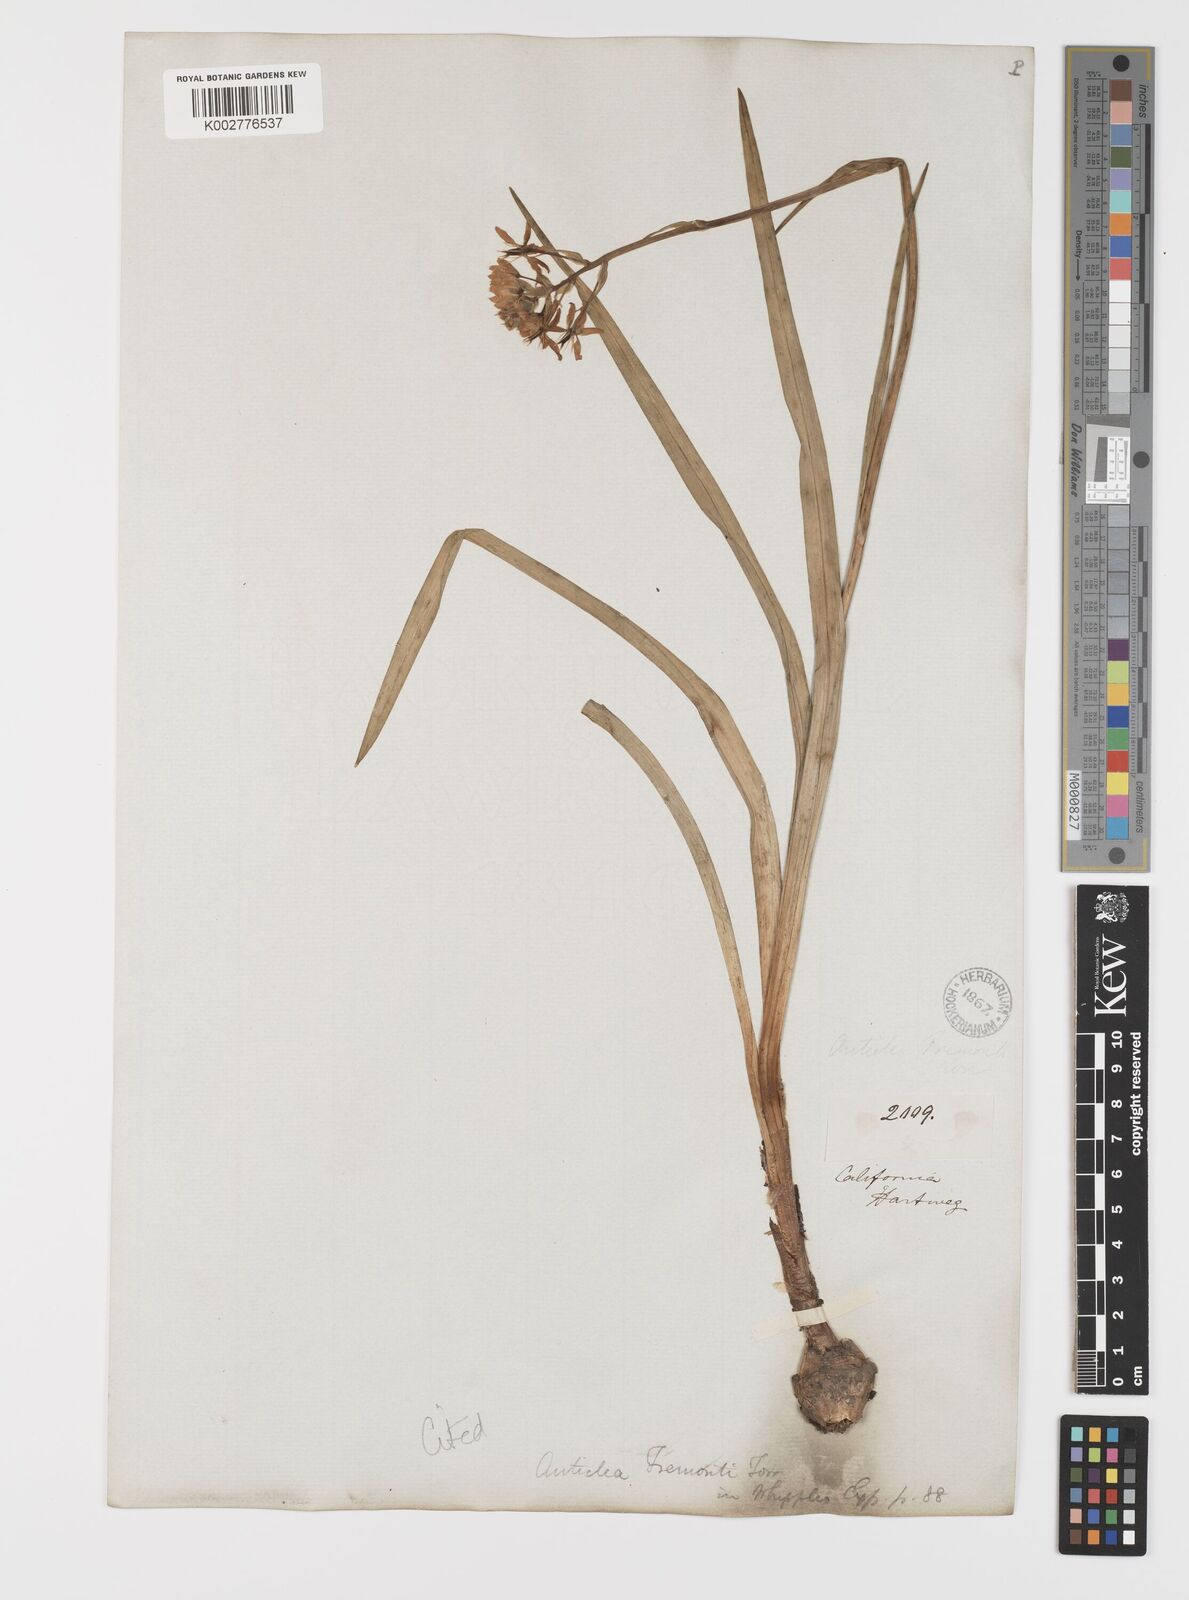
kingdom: Plantae
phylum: Tracheophyta
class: Liliopsida
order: Liliales
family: Melanthiaceae
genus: Toxicoscordion
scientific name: Toxicoscordion fremontii
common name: Fremont's death camas
